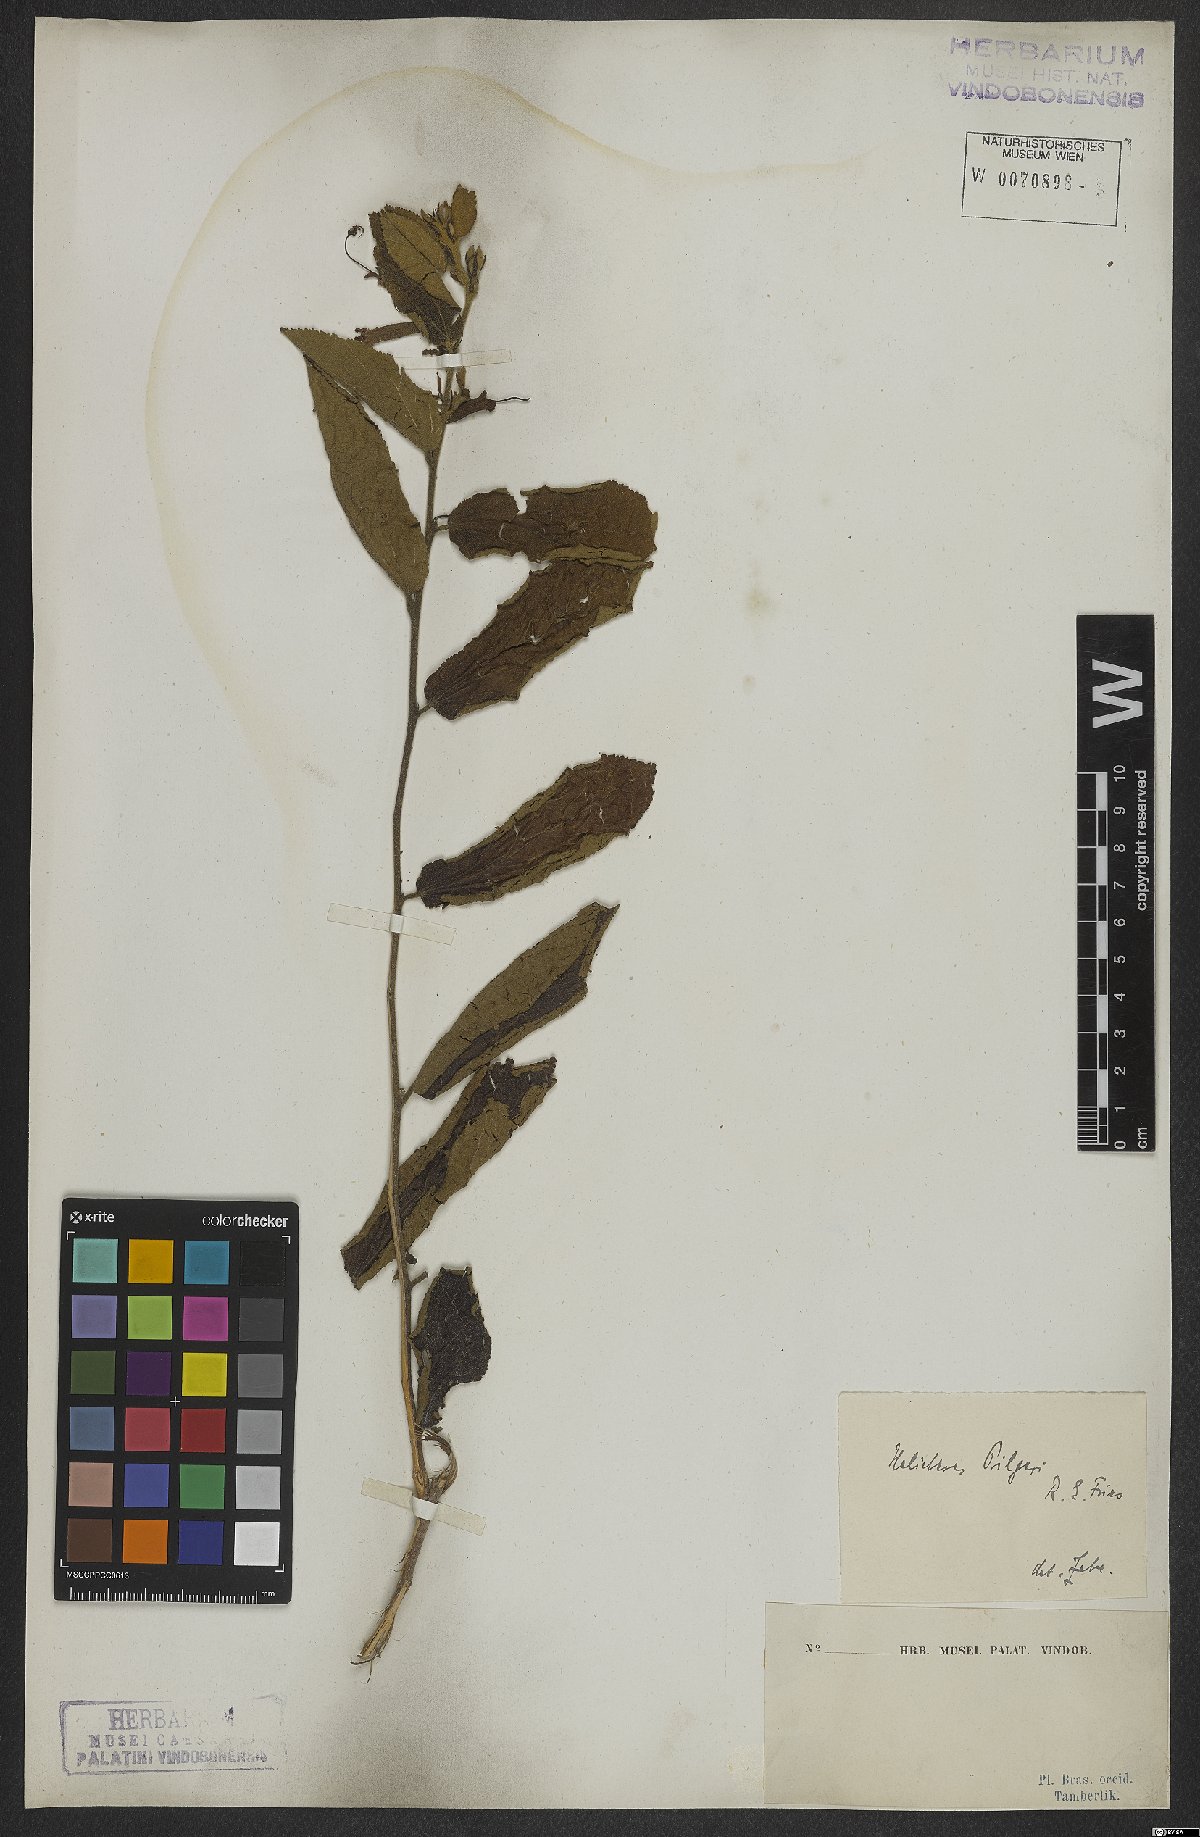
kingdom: Plantae
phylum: Tracheophyta
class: Magnoliopsida
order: Malvales
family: Malvaceae
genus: Helicteres
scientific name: Helicteres pilgeri
